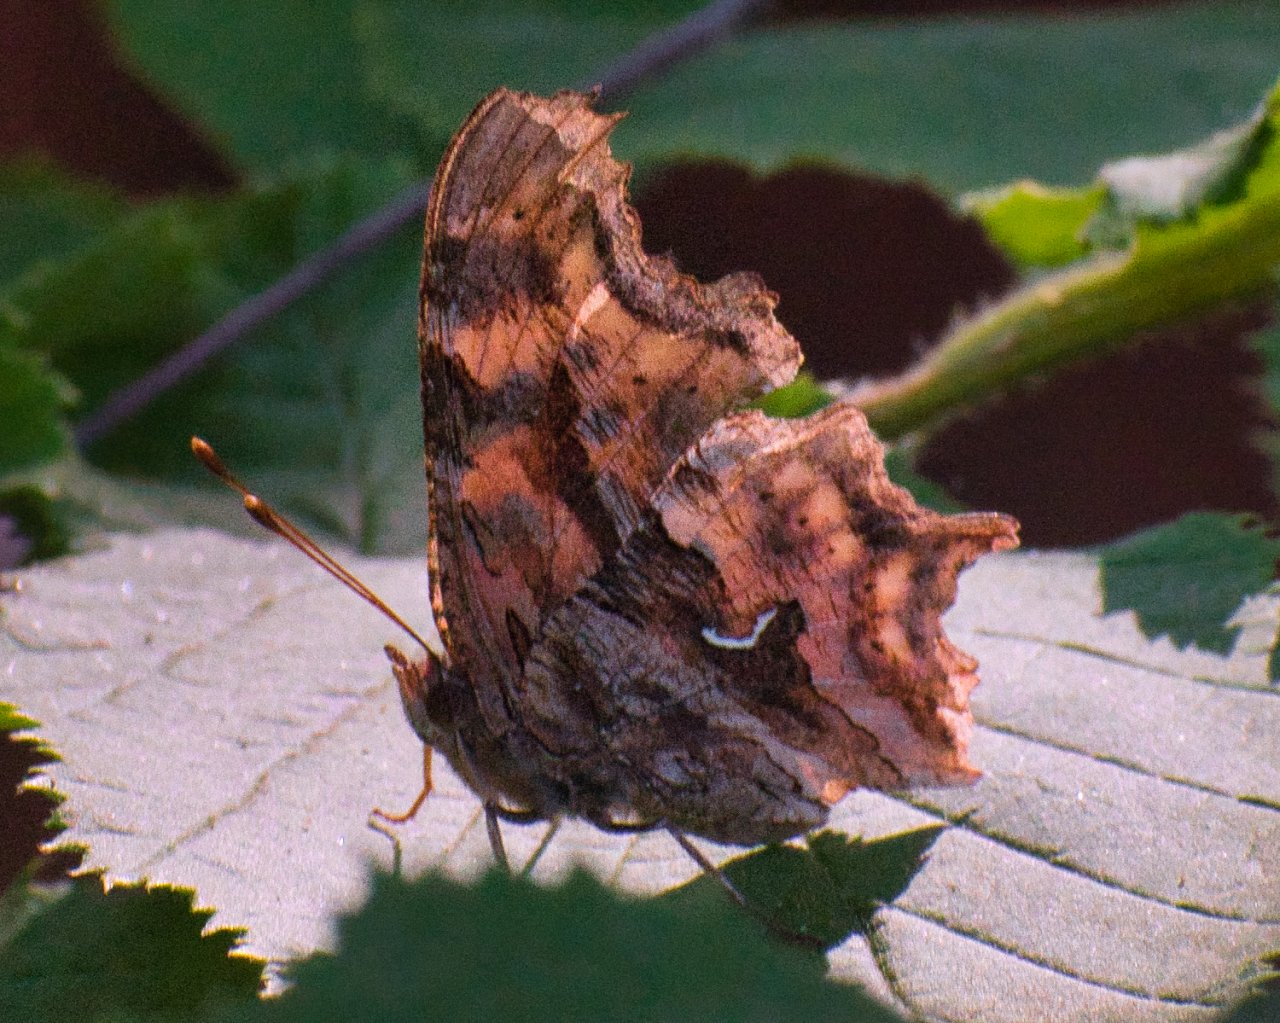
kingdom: Animalia
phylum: Arthropoda
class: Insecta
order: Lepidoptera
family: Nymphalidae
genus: Polygonia
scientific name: Polygonia satyrus
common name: Satyr Comma
